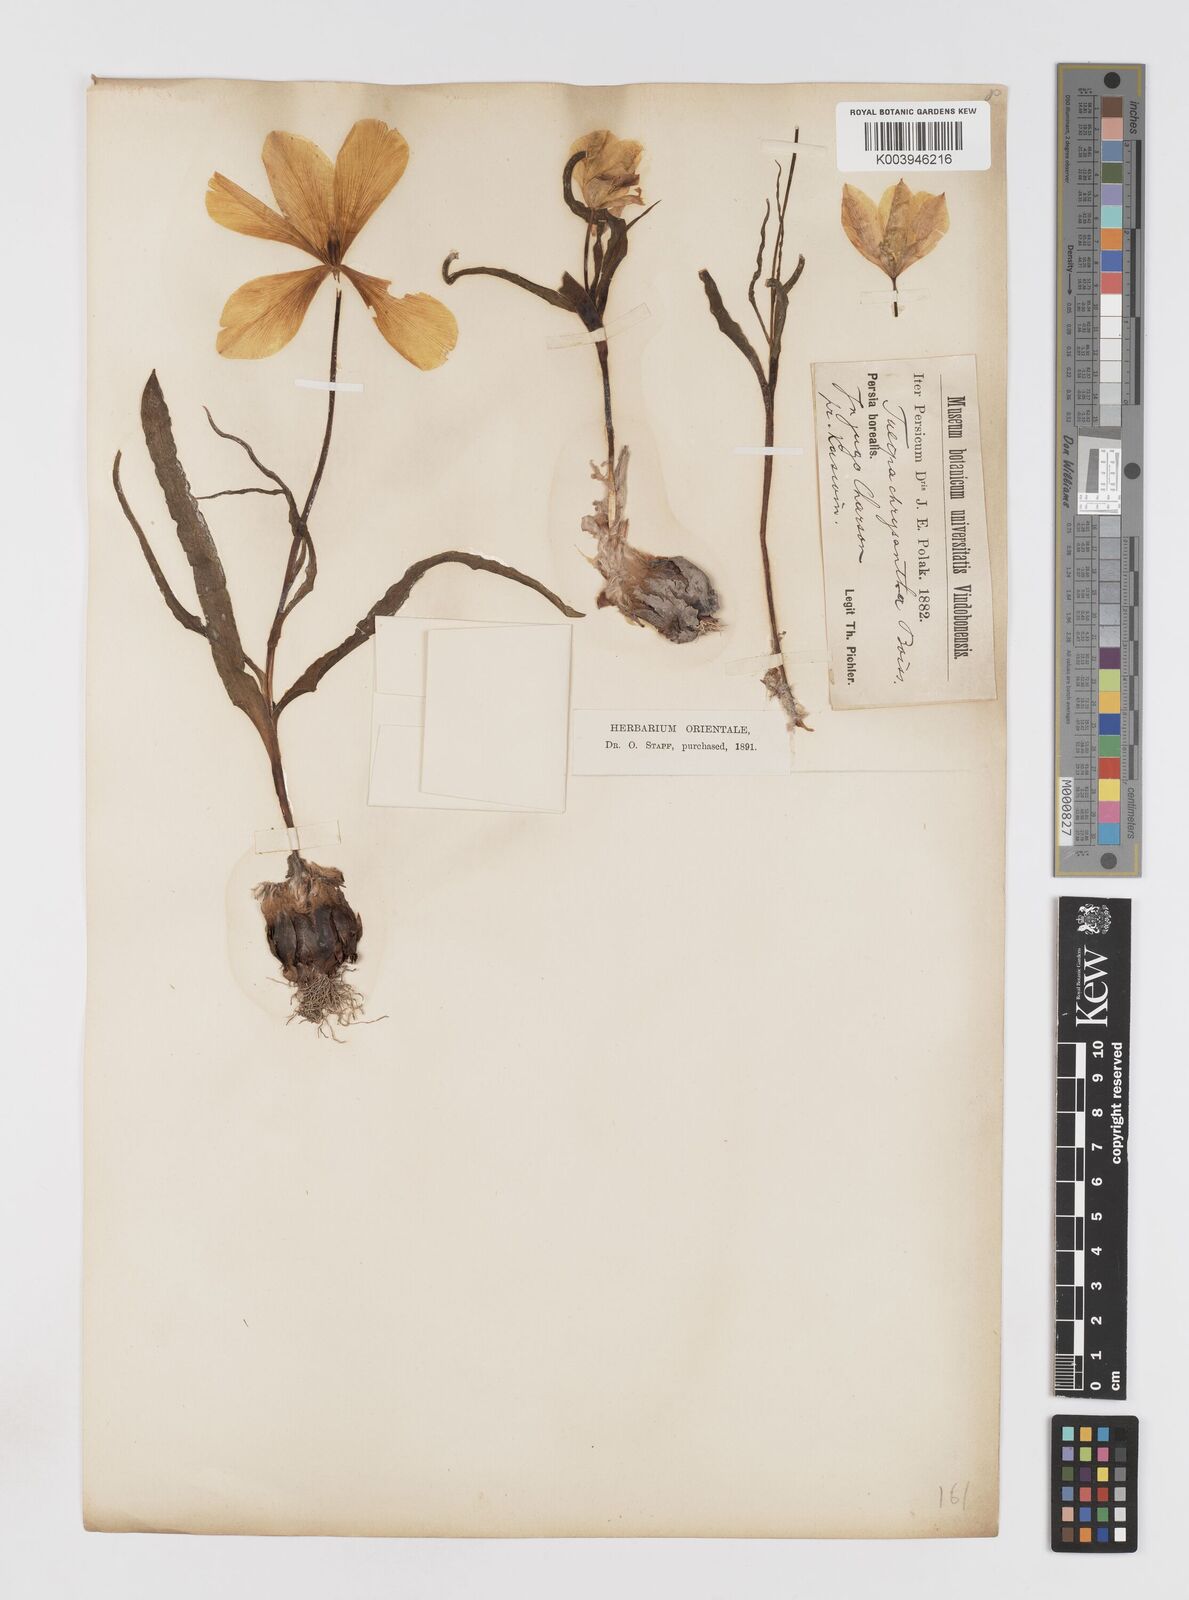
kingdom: Plantae
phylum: Tracheophyta
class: Liliopsida
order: Liliales
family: Liliaceae
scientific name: Liliaceae
